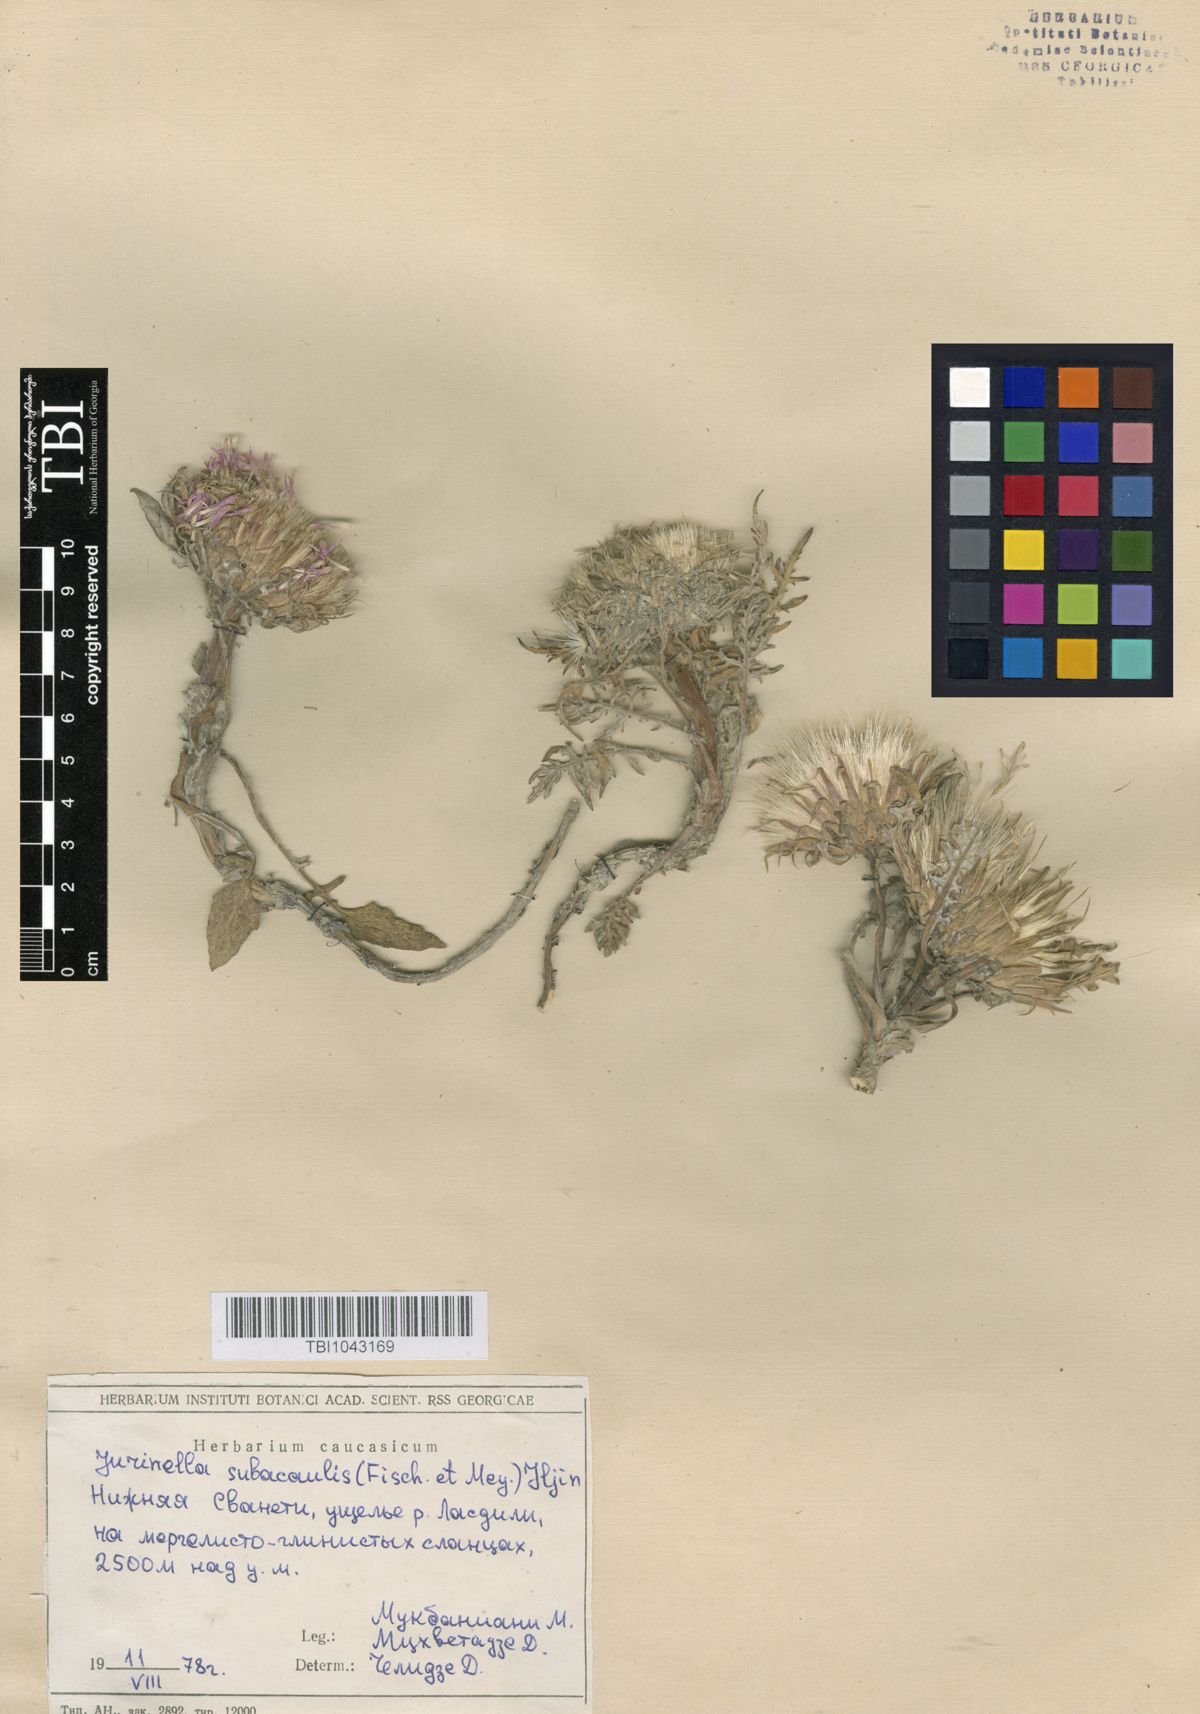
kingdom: Plantae
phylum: Tracheophyta
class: Magnoliopsida
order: Asterales
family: Asteraceae
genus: Jurinea
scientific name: Jurinea moschus
